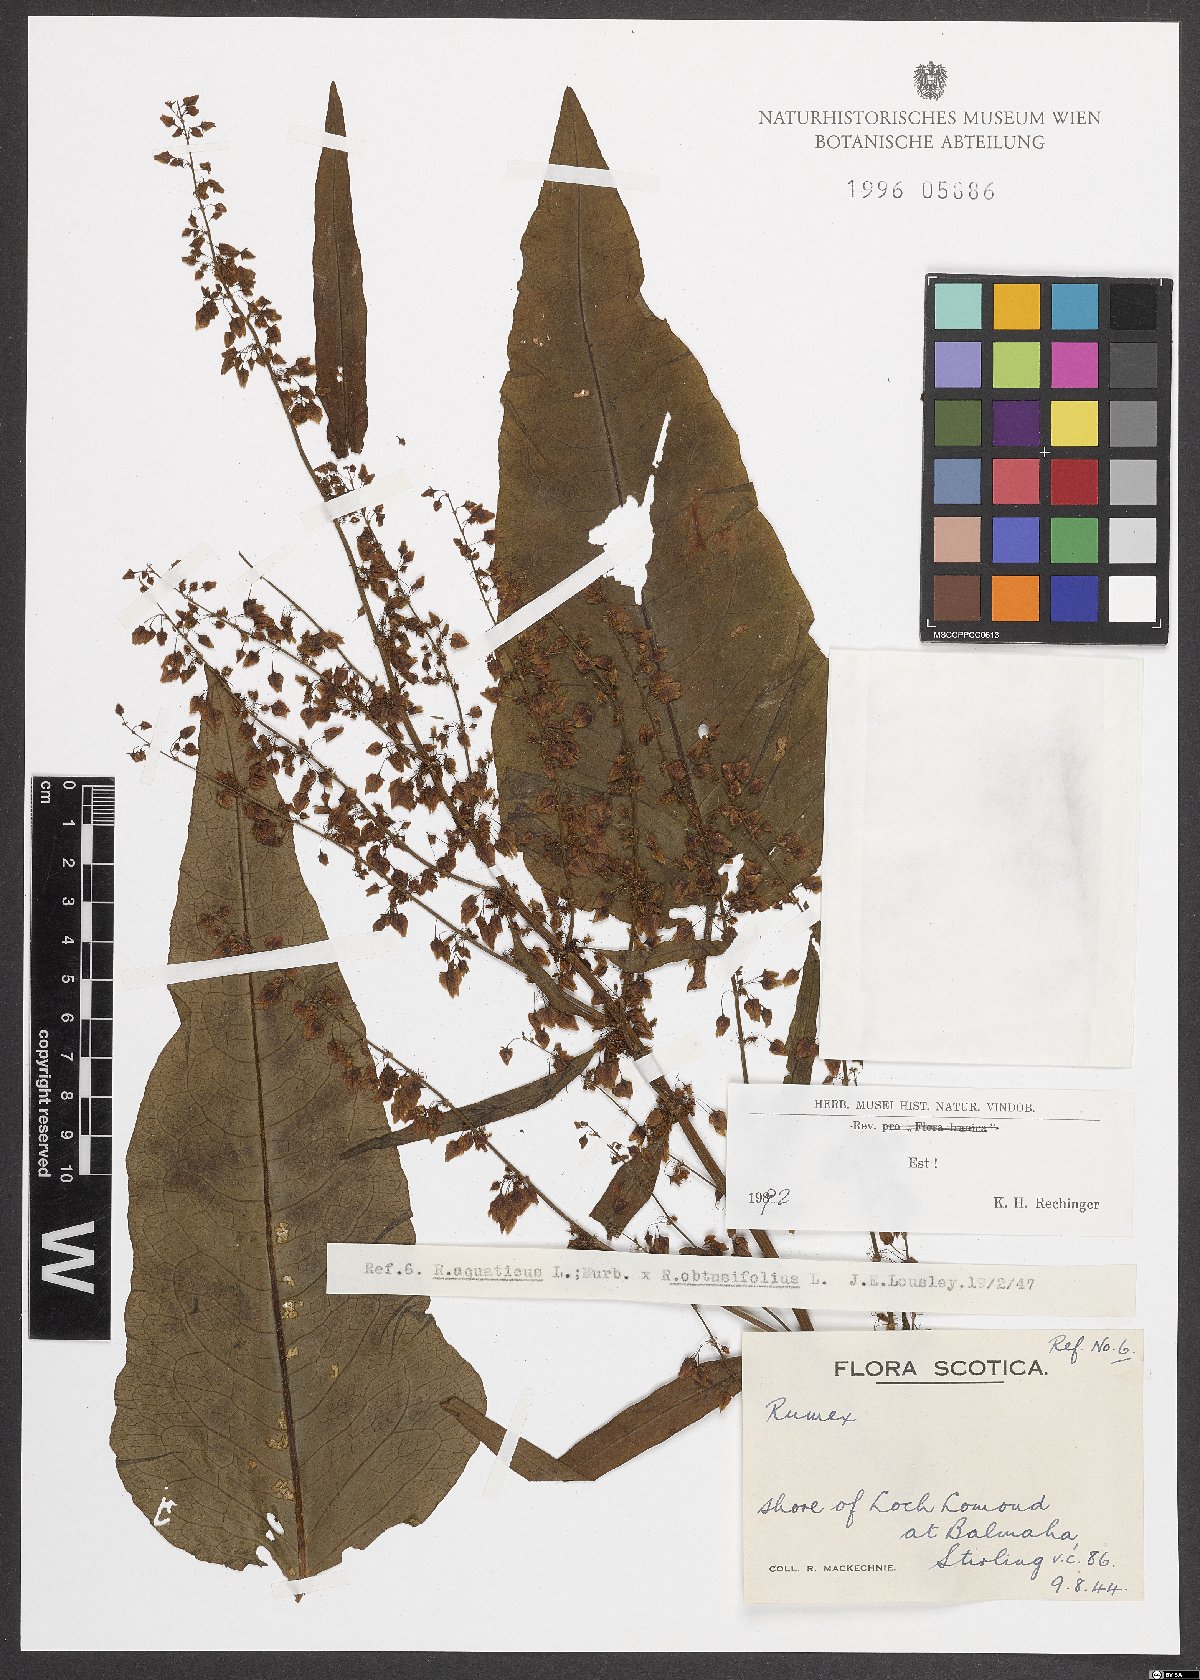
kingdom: Plantae
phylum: Tracheophyta
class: Magnoliopsida
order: Caryophyllales
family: Polygonaceae
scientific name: Polygonaceae
